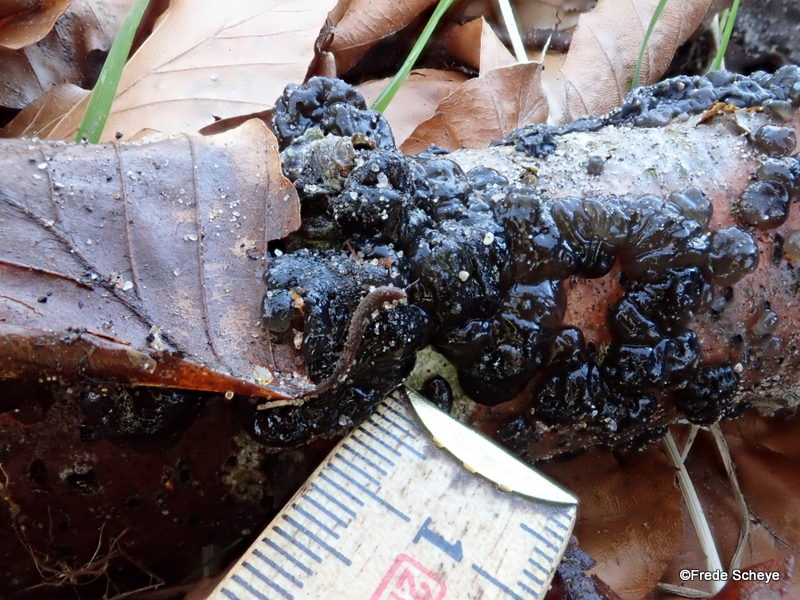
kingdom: Fungi
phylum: Basidiomycota
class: Agaricomycetes
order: Auriculariales
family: Auriculariaceae
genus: Exidia
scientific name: Exidia nigricans
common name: almindelig bævretop
